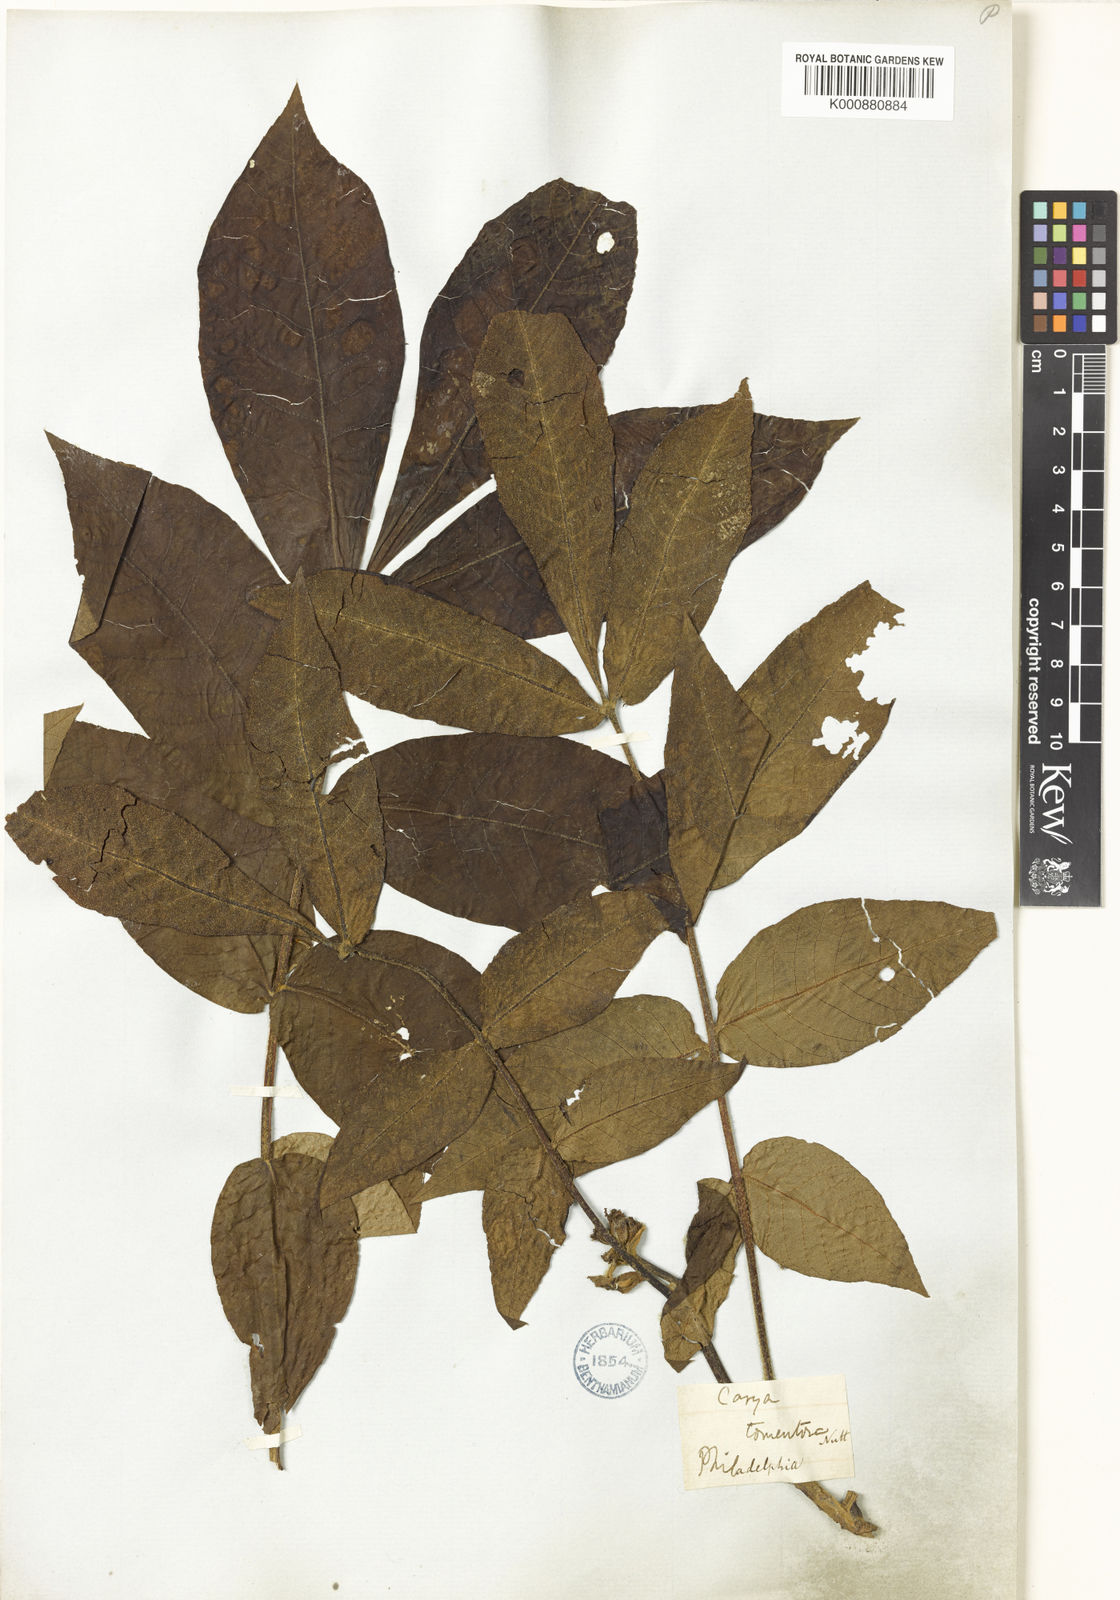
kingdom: Plantae
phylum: Tracheophyta
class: Magnoliopsida
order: Fagales
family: Juglandaceae
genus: Carya
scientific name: Carya alba
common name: Mockernut hickory
